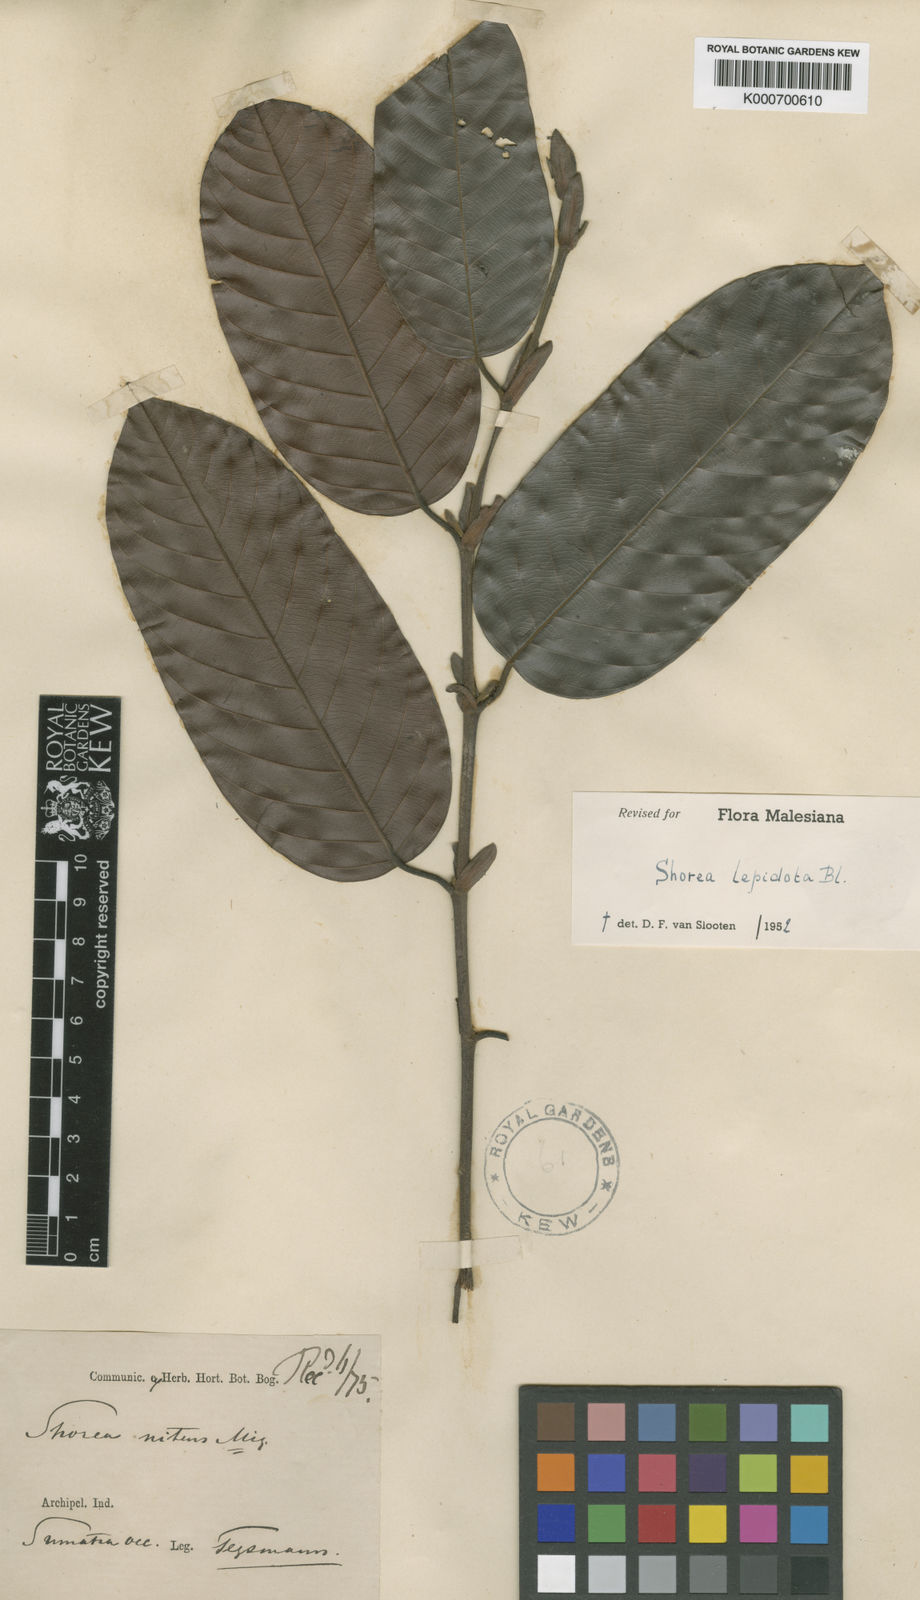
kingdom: Plantae
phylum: Tracheophyta
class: Magnoliopsida
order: Malvales
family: Dipterocarpaceae
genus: Shorea
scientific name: Shorea lepidota
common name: Light red meranti
